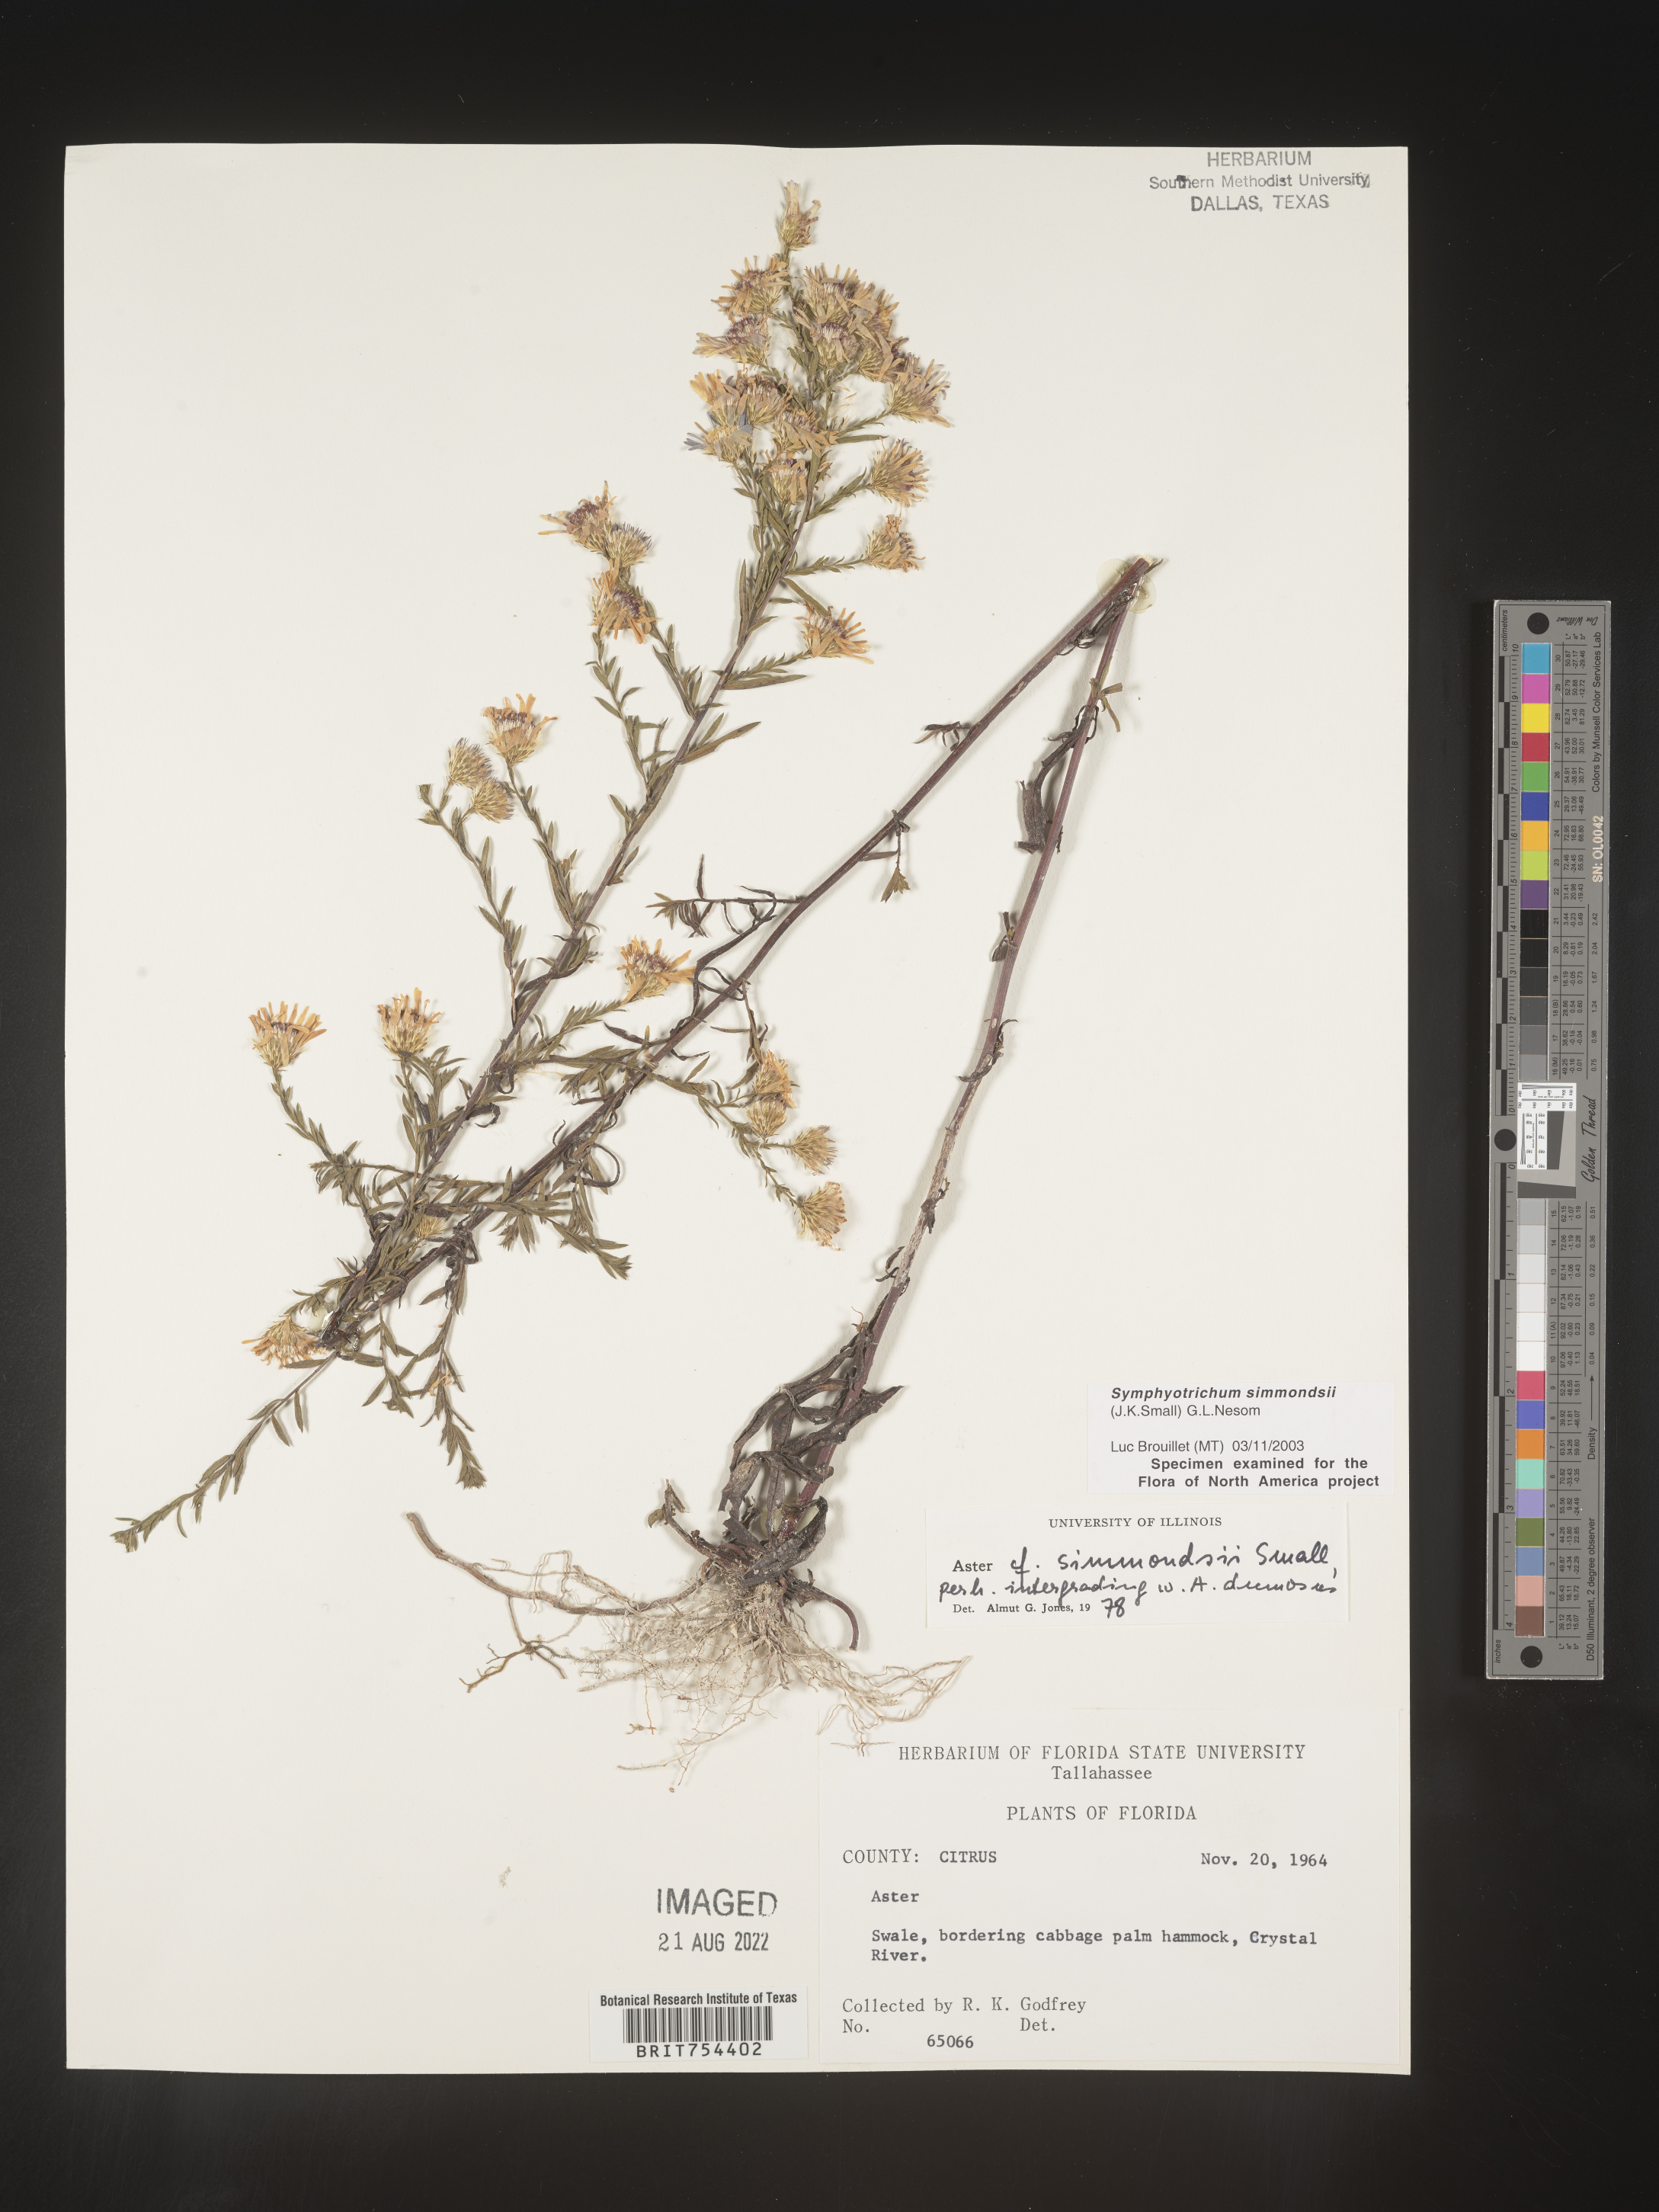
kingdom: Plantae
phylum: Tracheophyta
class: Magnoliopsida
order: Asterales
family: Asteraceae
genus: Symphyotrichum
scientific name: Symphyotrichum simmondsii
